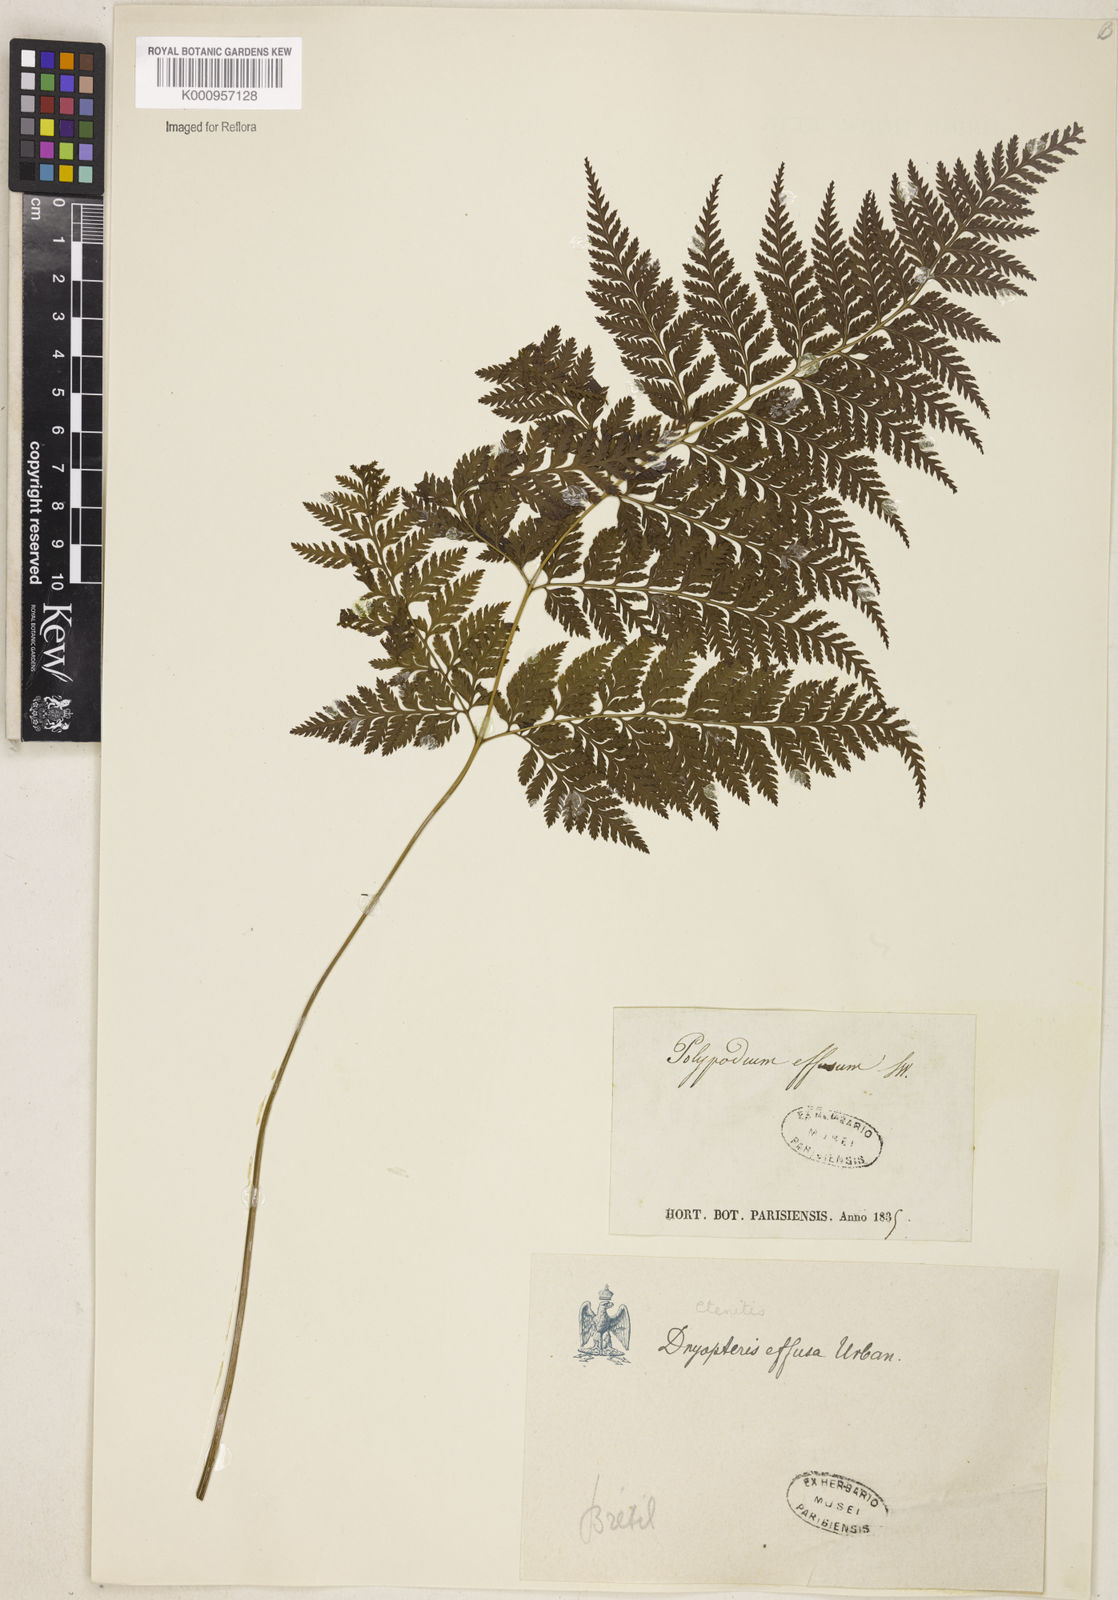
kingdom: Plantae
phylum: Tracheophyta
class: Polypodiopsida
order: Polypodiales
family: Dryopteridaceae
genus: Parapolystichum
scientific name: Parapolystichum effusum
